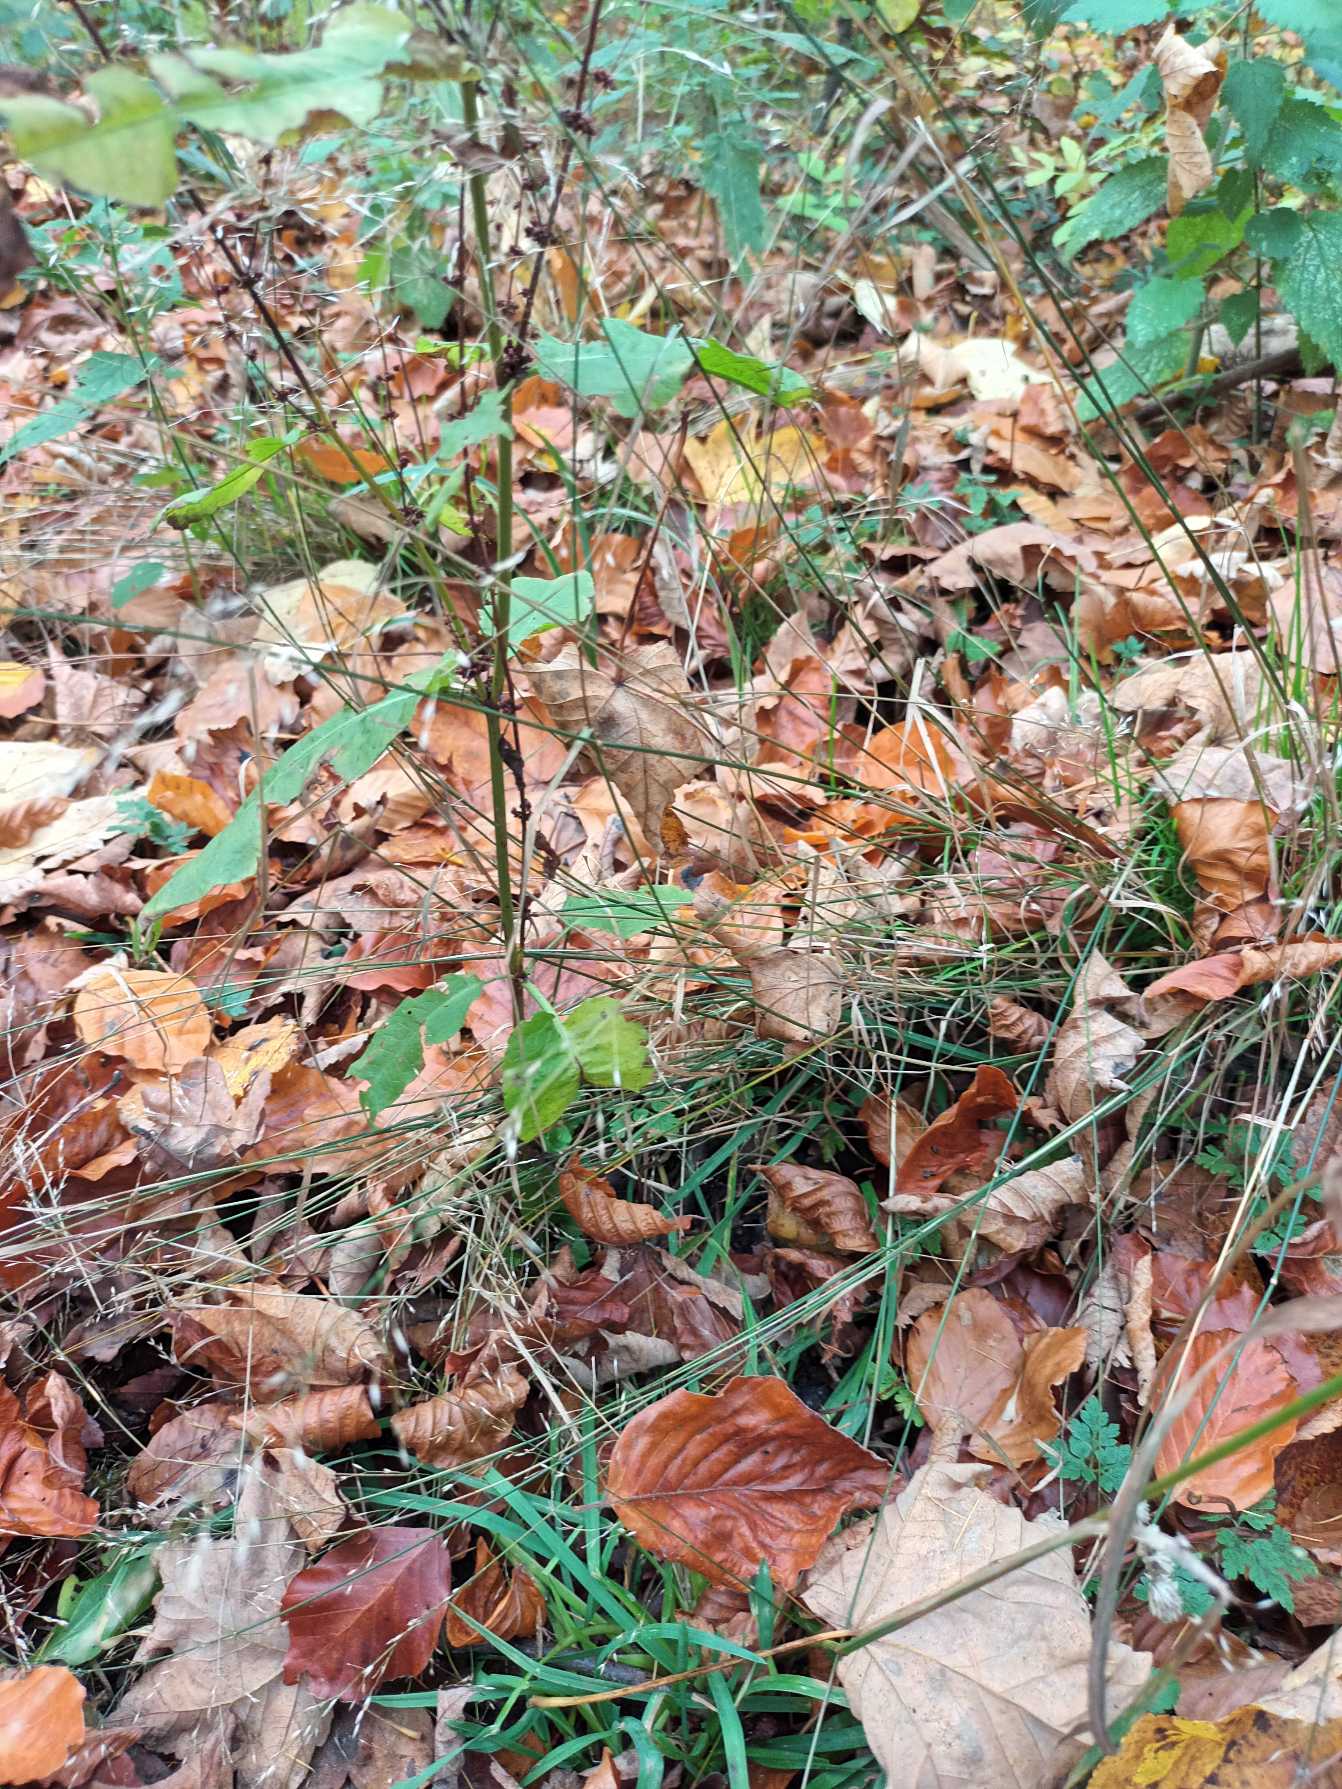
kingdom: Plantae
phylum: Tracheophyta
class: Liliopsida
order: Poales
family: Poaceae
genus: Poa
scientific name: Poa nemoralis
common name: Lund-rapgræs
